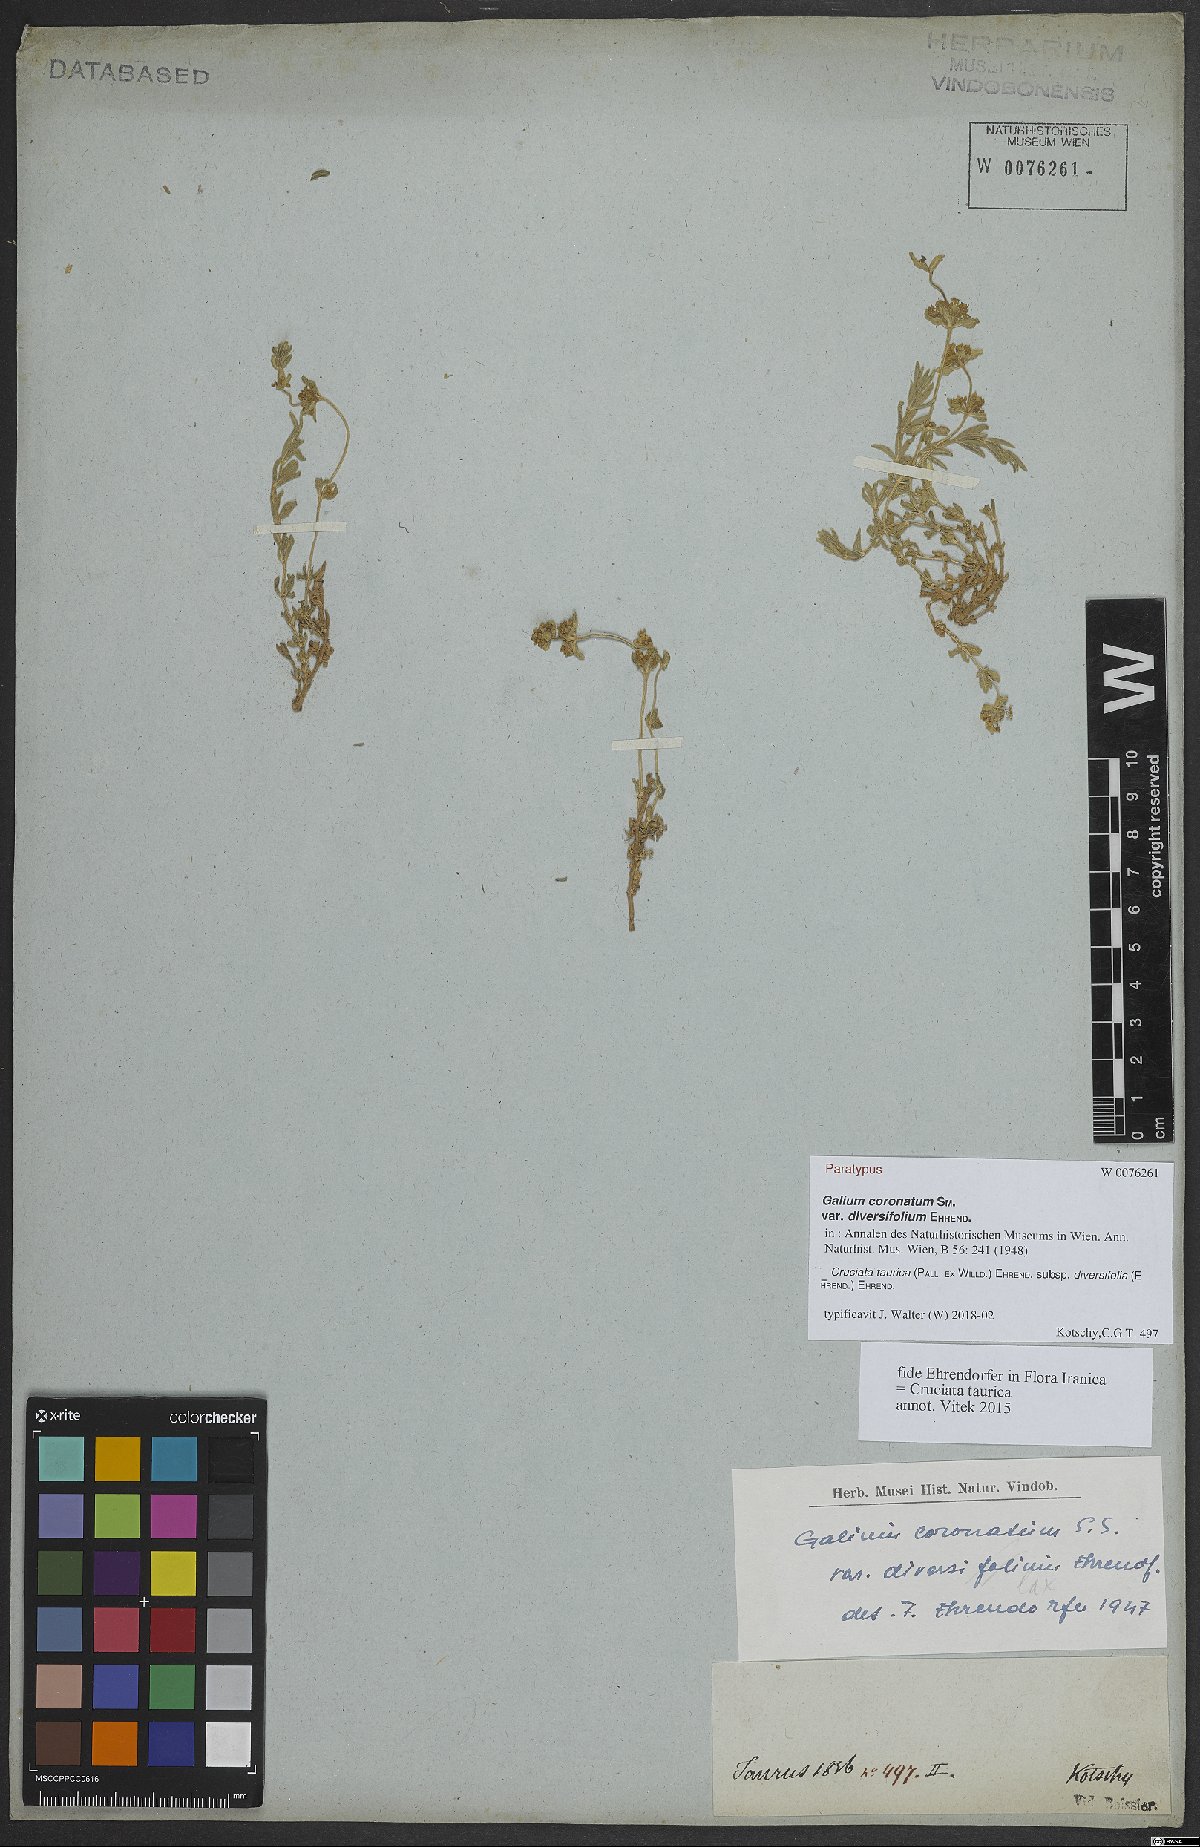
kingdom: Plantae
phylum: Tracheophyta
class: Magnoliopsida
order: Gentianales
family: Rubiaceae
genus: Cruciata
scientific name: Cruciata taurica
